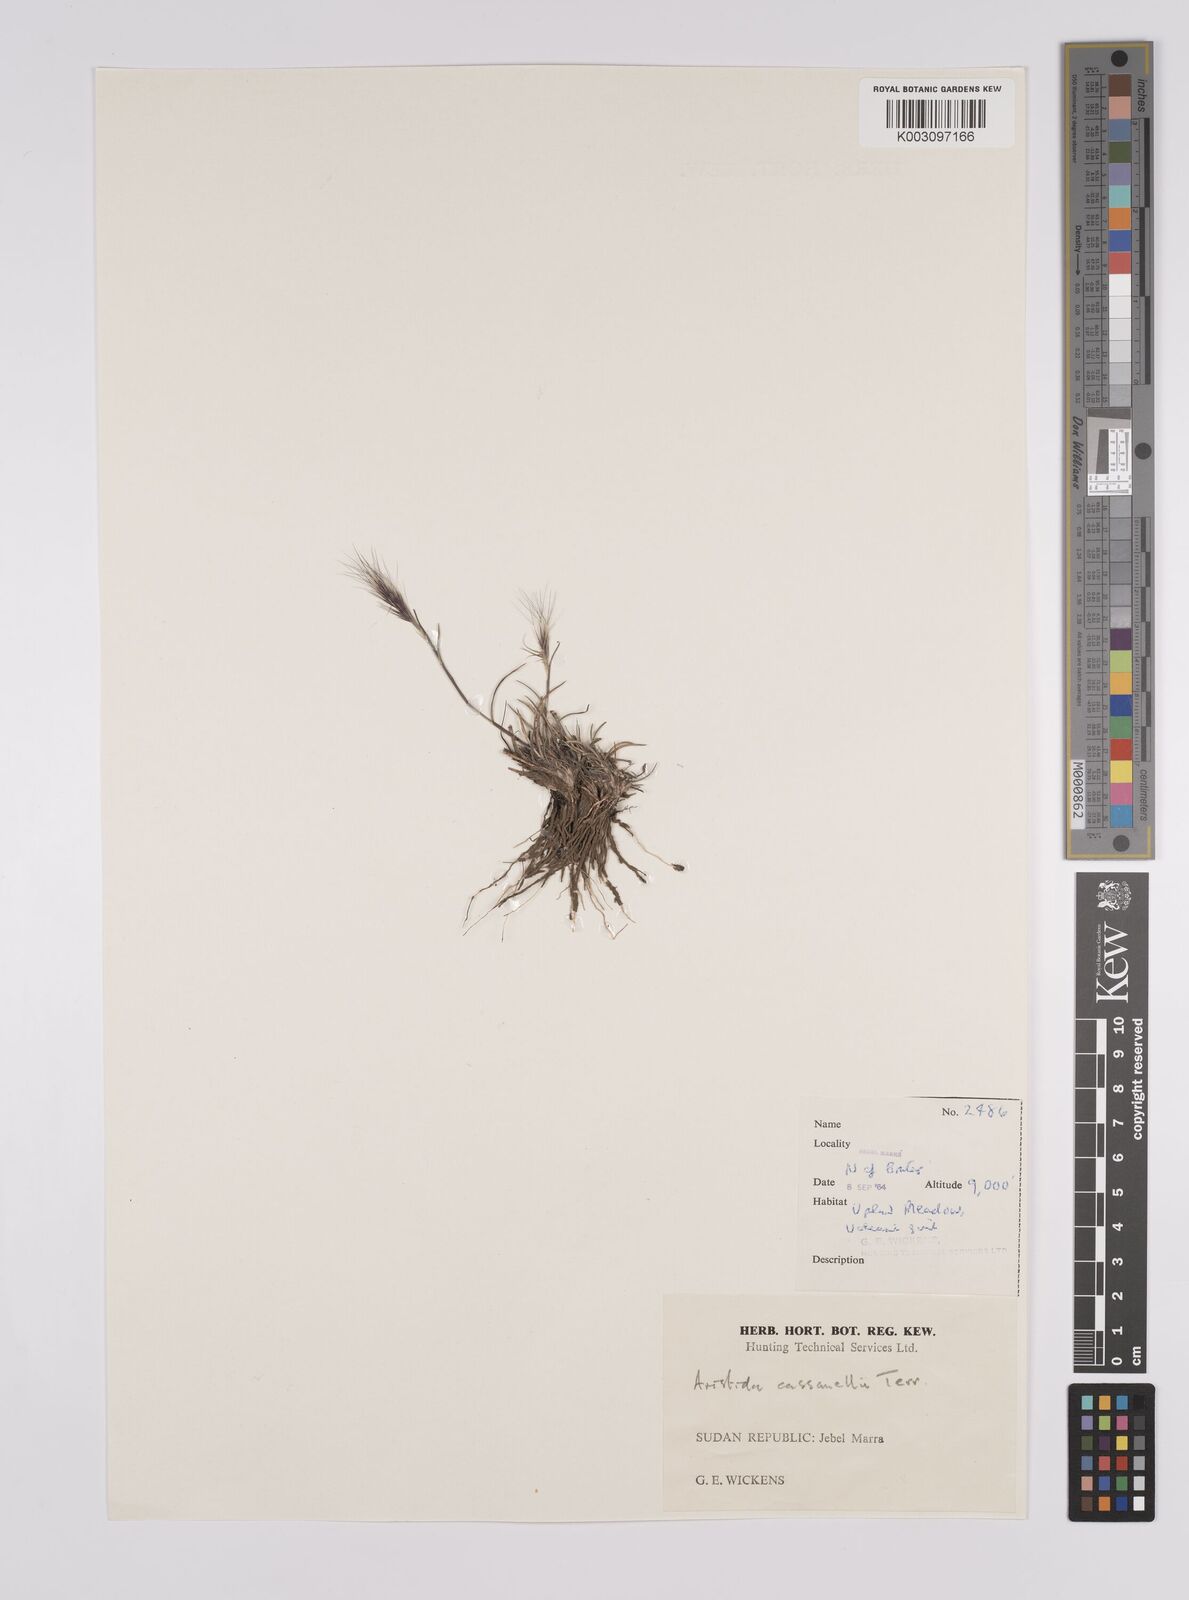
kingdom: Plantae
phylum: Tracheophyta
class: Liliopsida
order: Poales
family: Poaceae
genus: Aristida
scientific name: Aristida congesta
